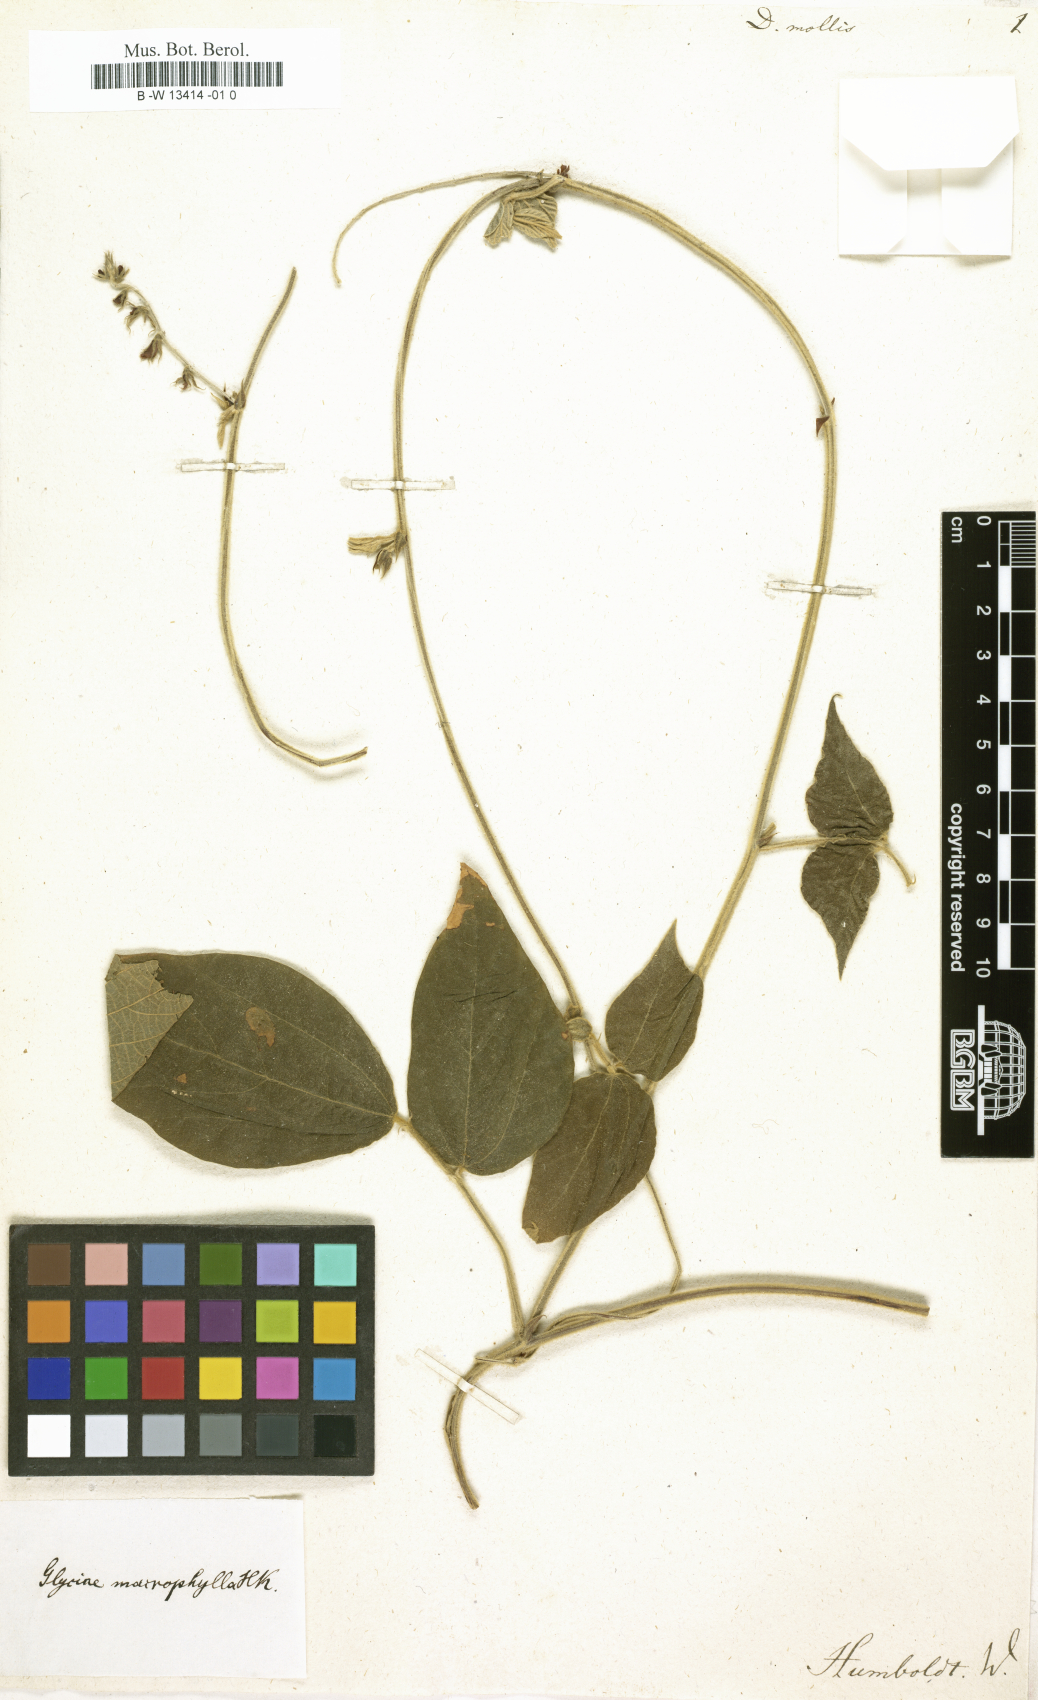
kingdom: Plantae
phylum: Tracheophyta
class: Magnoliopsida
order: Fabales
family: Fabaceae
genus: Dolichos
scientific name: Dolichos mollis
